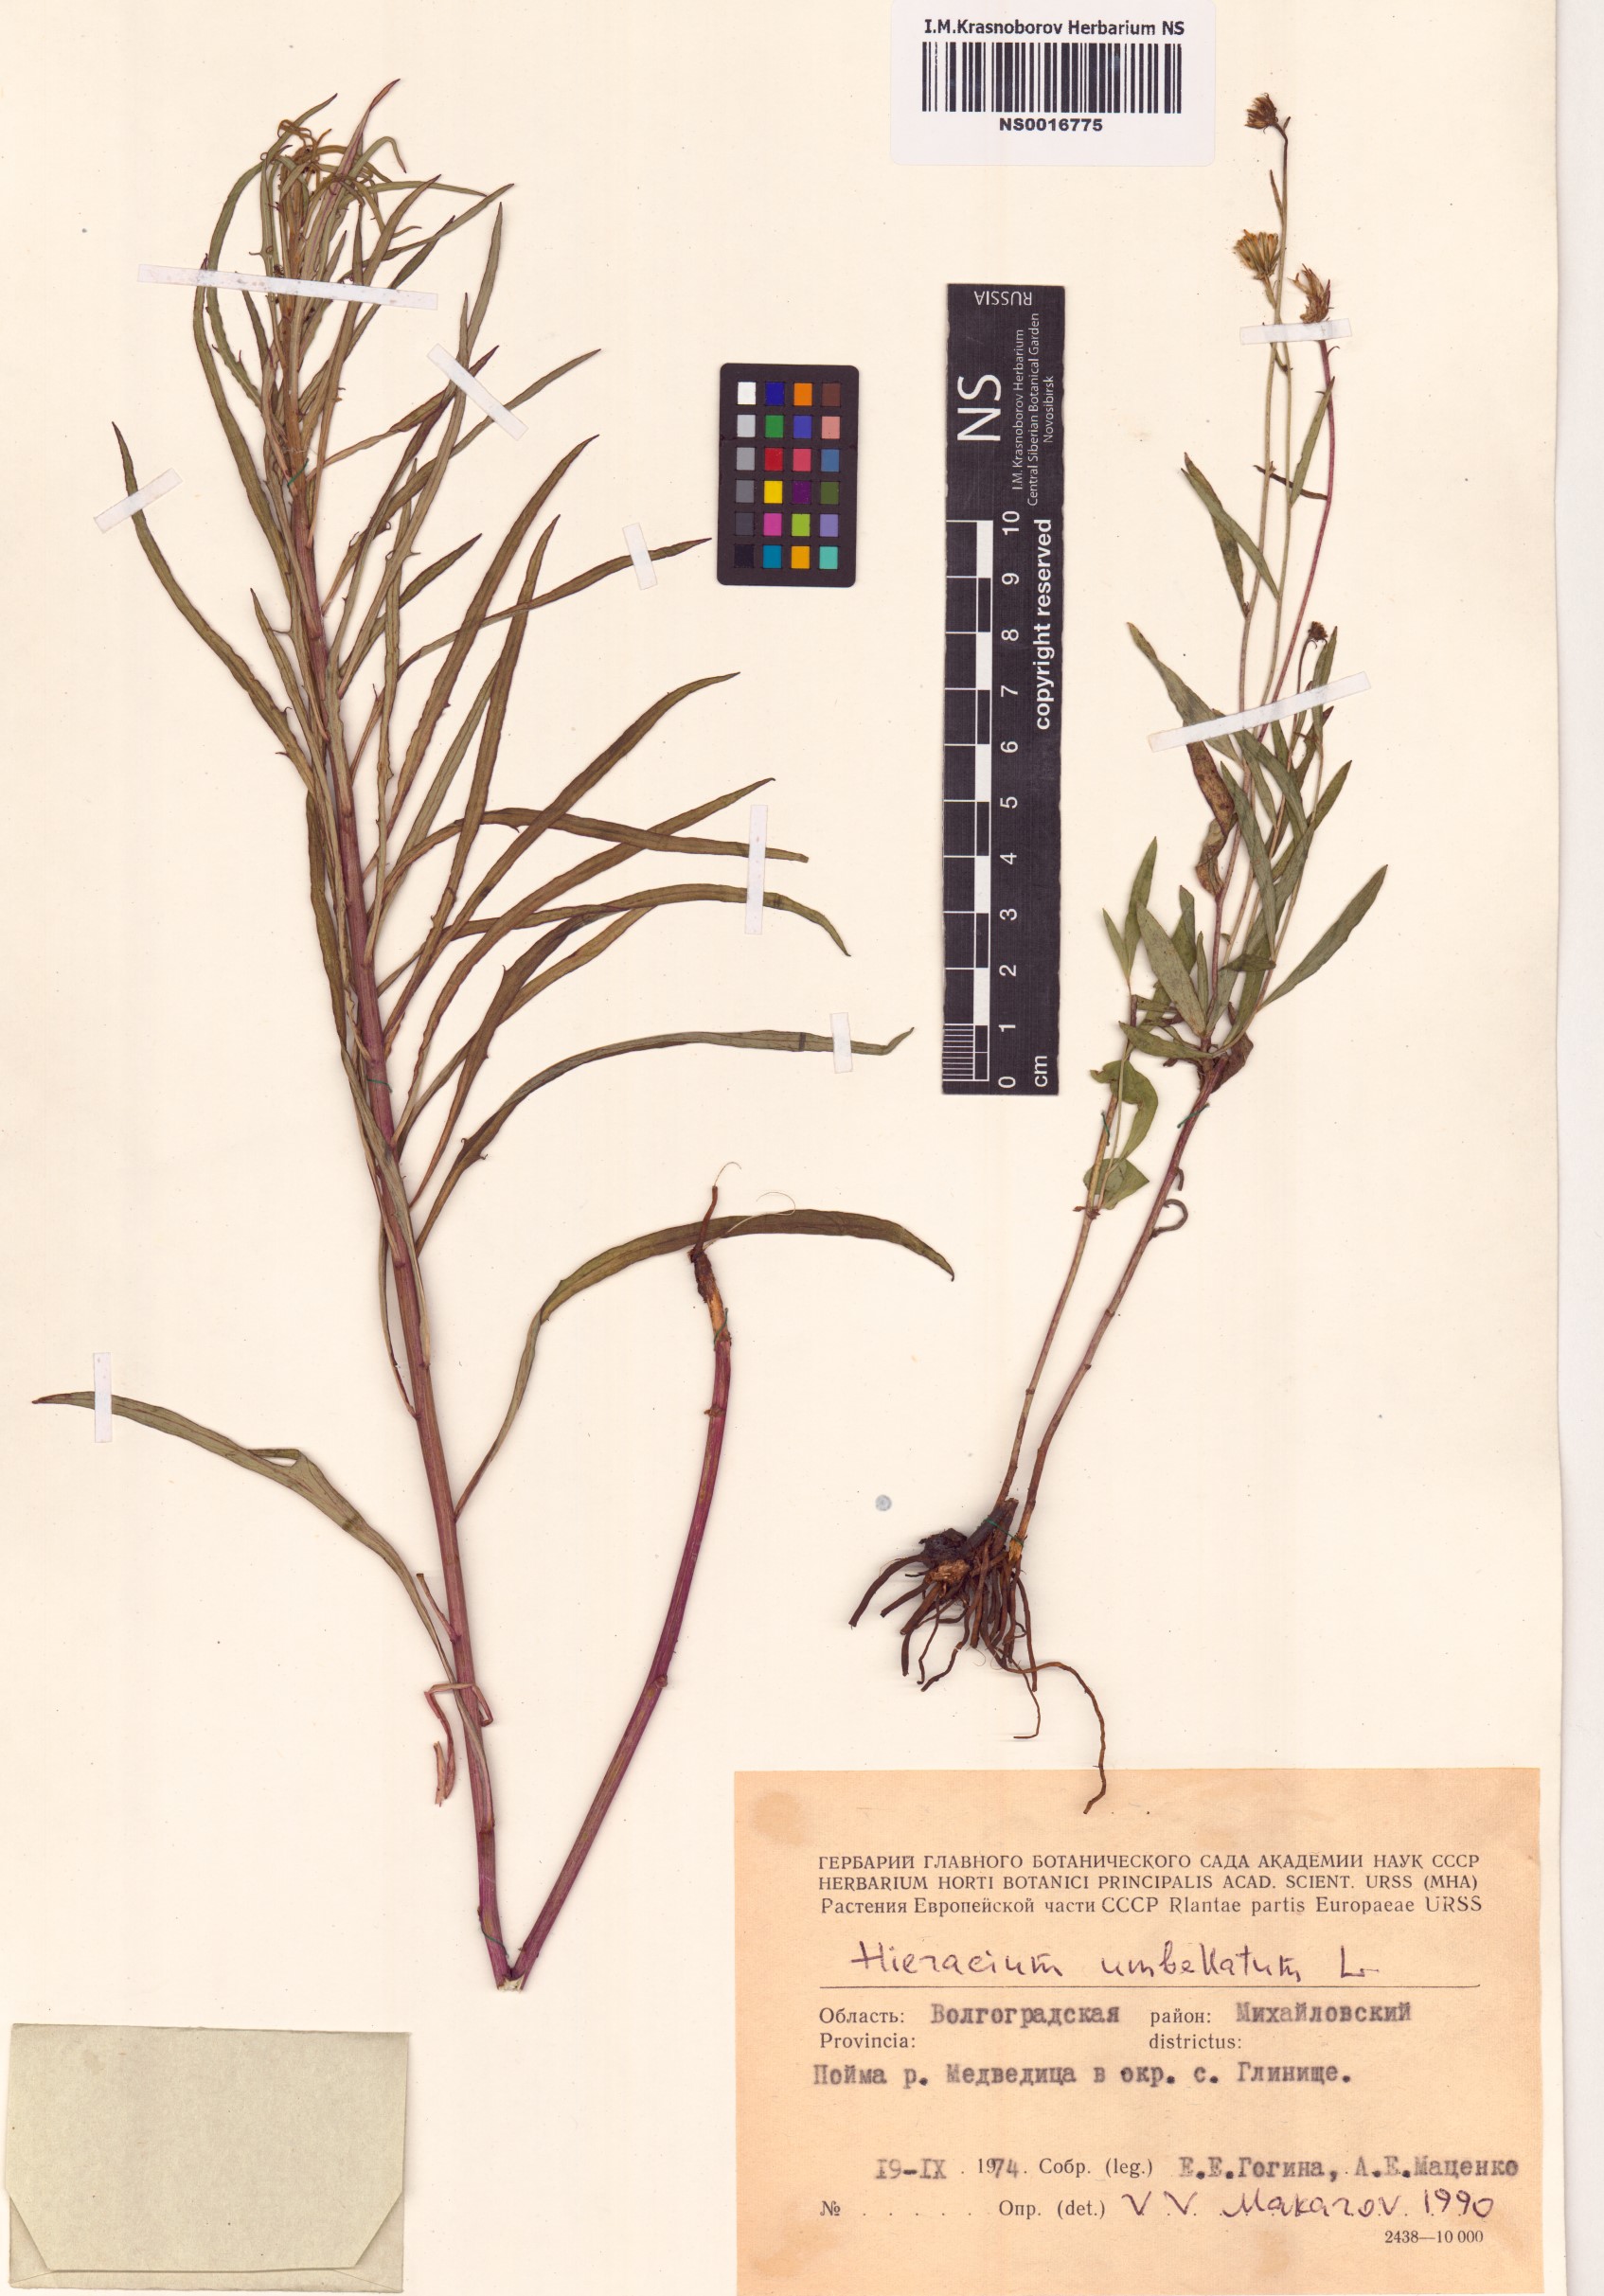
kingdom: Plantae
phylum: Tracheophyta
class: Magnoliopsida
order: Asterales
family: Asteraceae
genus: Hieracium
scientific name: Hieracium umbellatum
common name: Northern hawkweed
